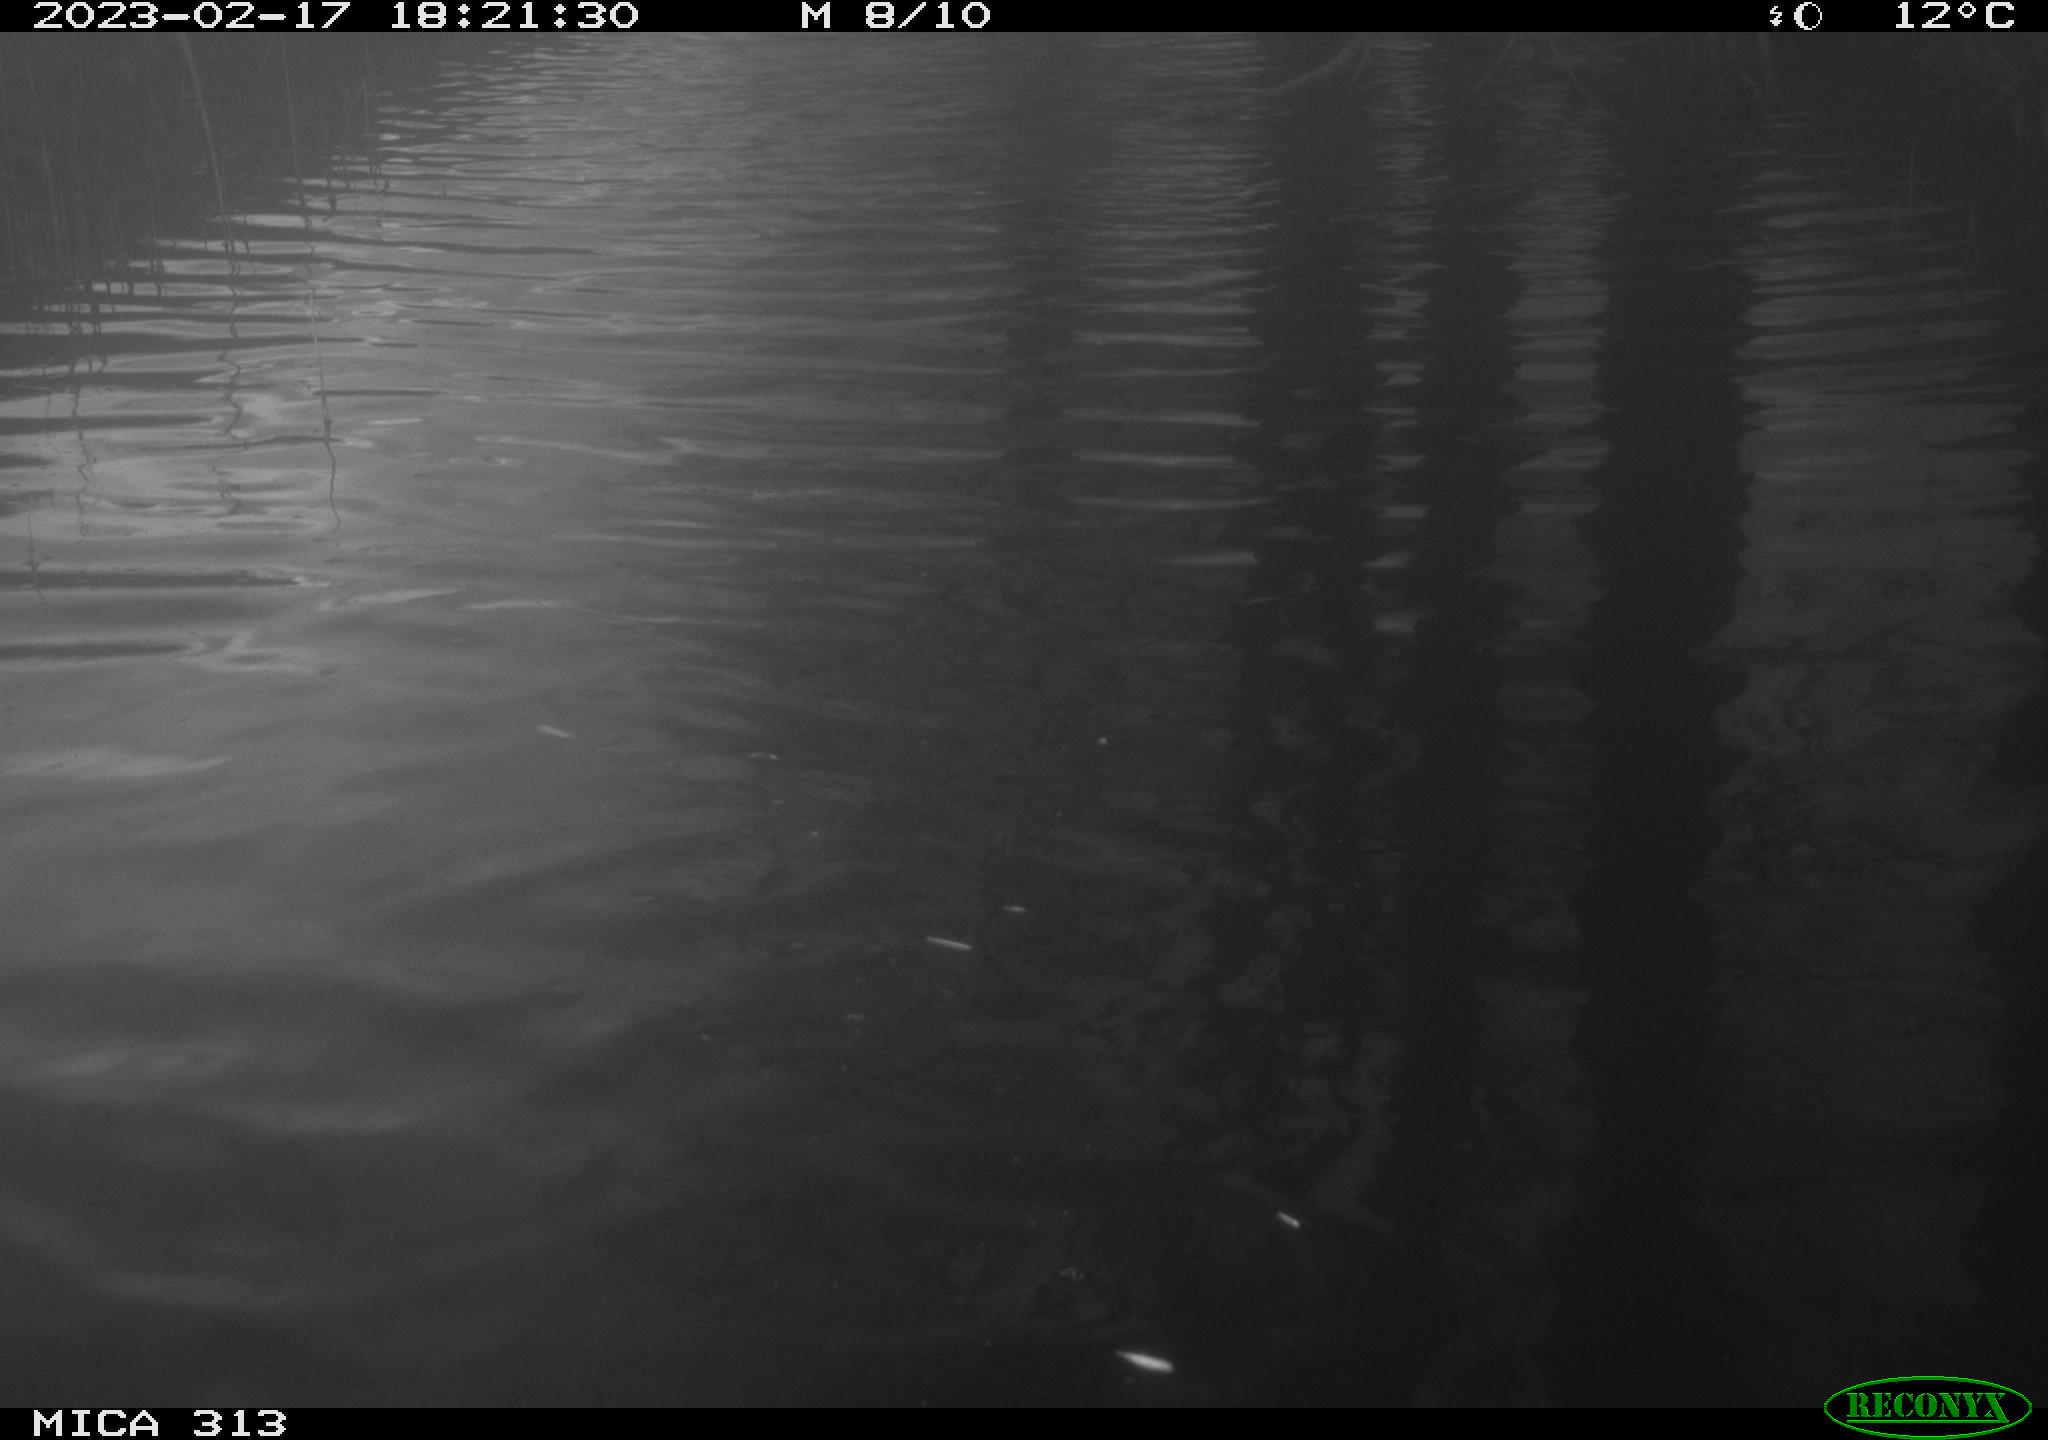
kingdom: Animalia
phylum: Chordata
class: Aves
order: Gruiformes
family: Rallidae
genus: Gallinula
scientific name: Gallinula chloropus
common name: Common moorhen
